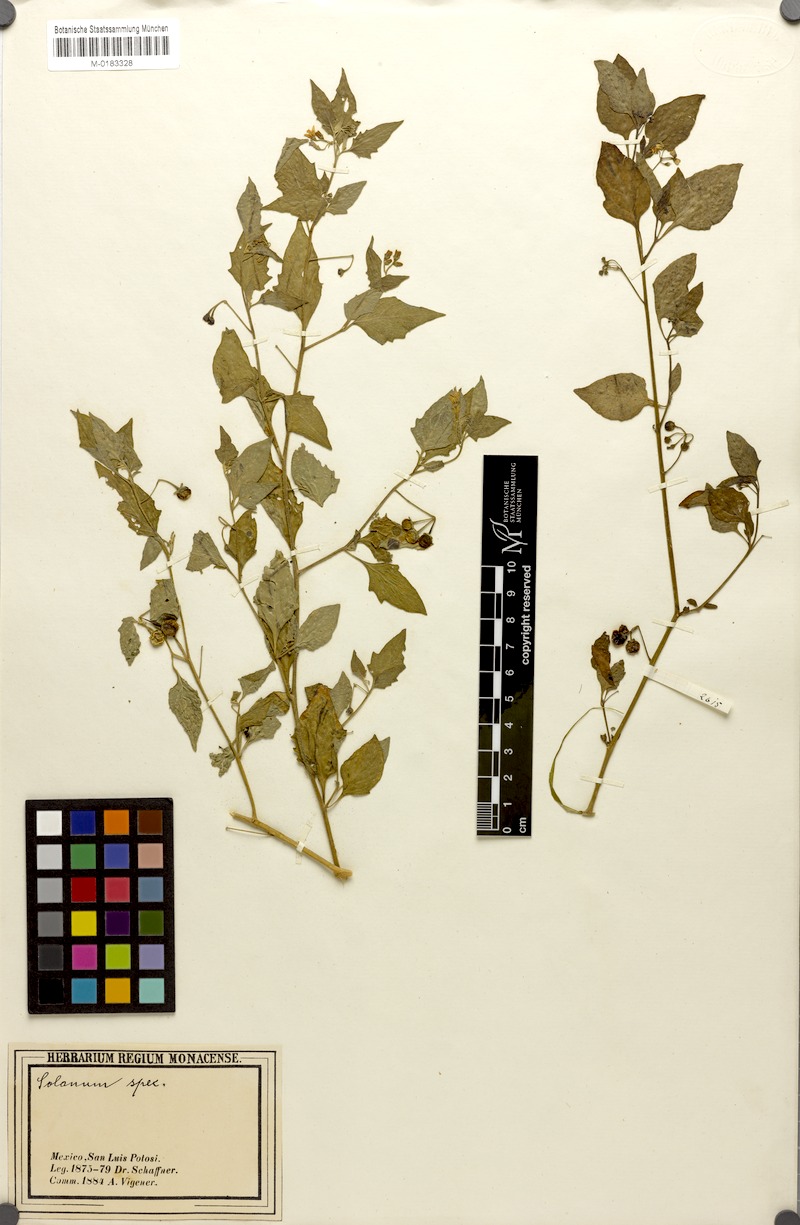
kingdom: Plantae
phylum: Tracheophyta
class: Magnoliopsida
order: Solanales
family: Solanaceae
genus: Solanum
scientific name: Solanum pruinosum
